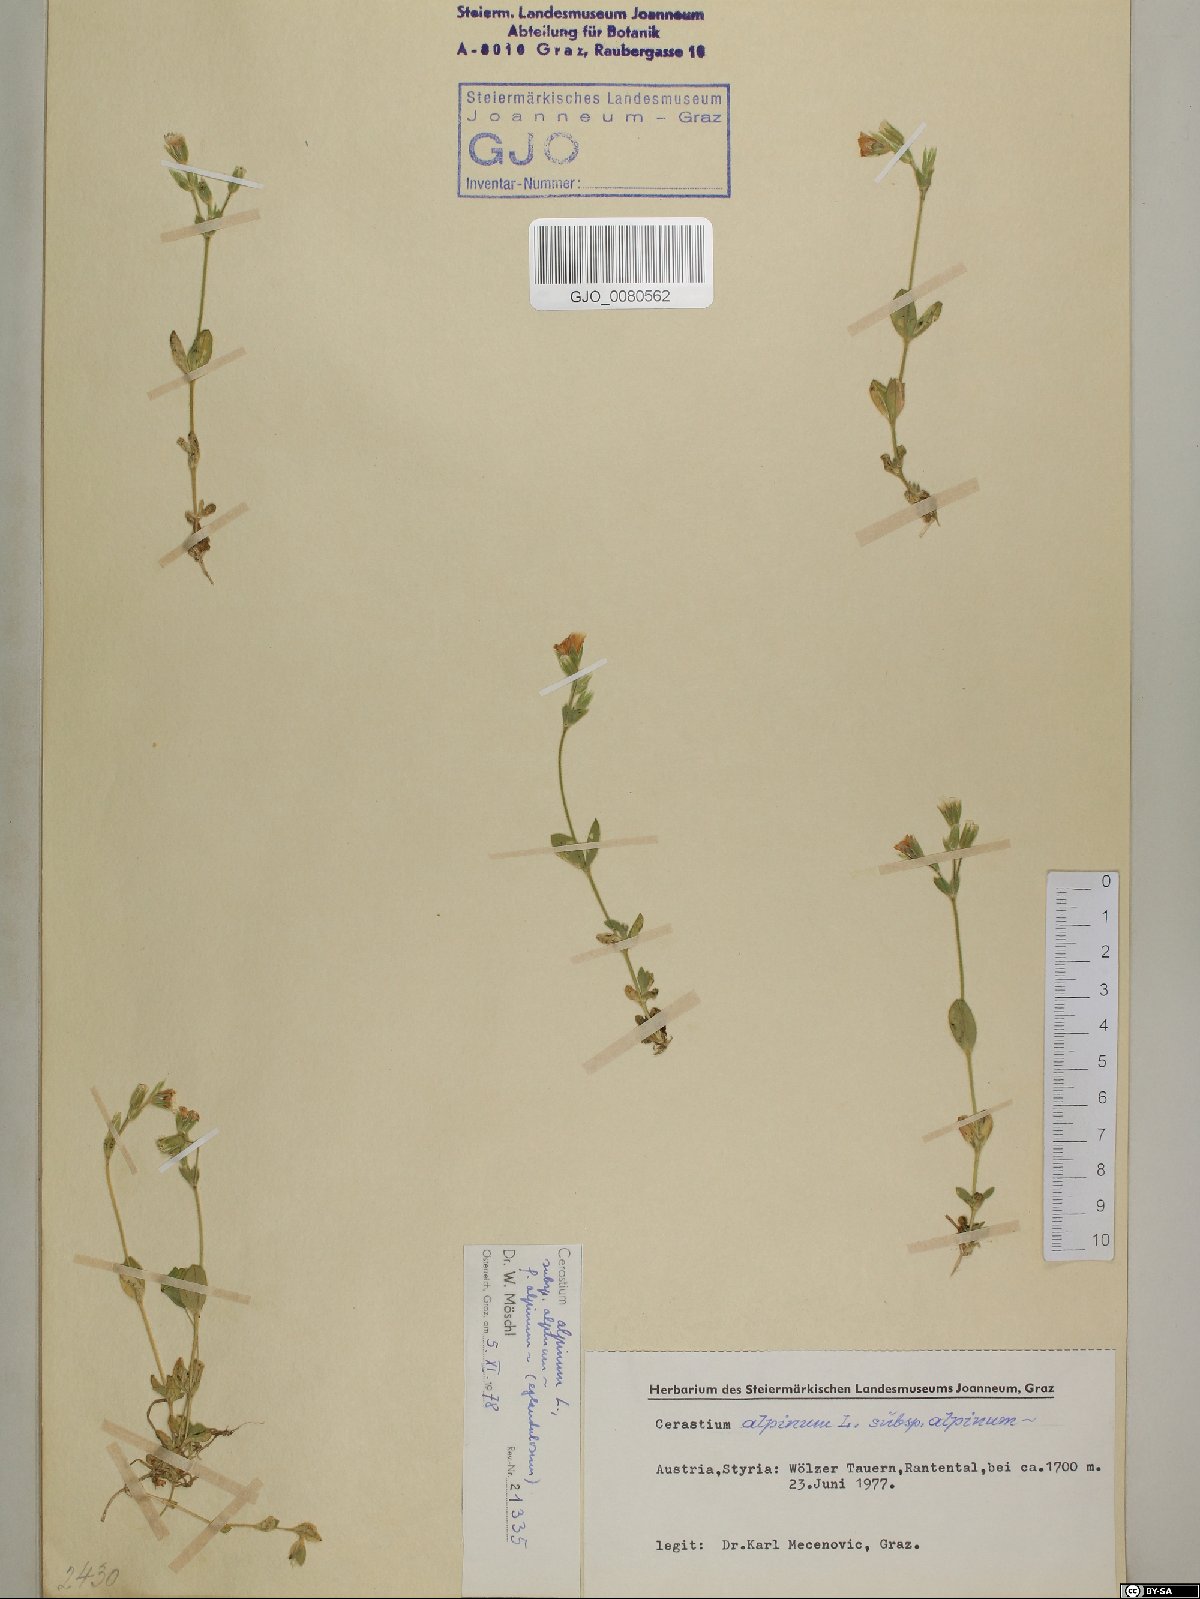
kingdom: Plantae
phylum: Tracheophyta
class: Magnoliopsida
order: Caryophyllales
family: Caryophyllaceae
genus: Cerastium
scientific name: Cerastium alpinum
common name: Alpine mouse-ear
